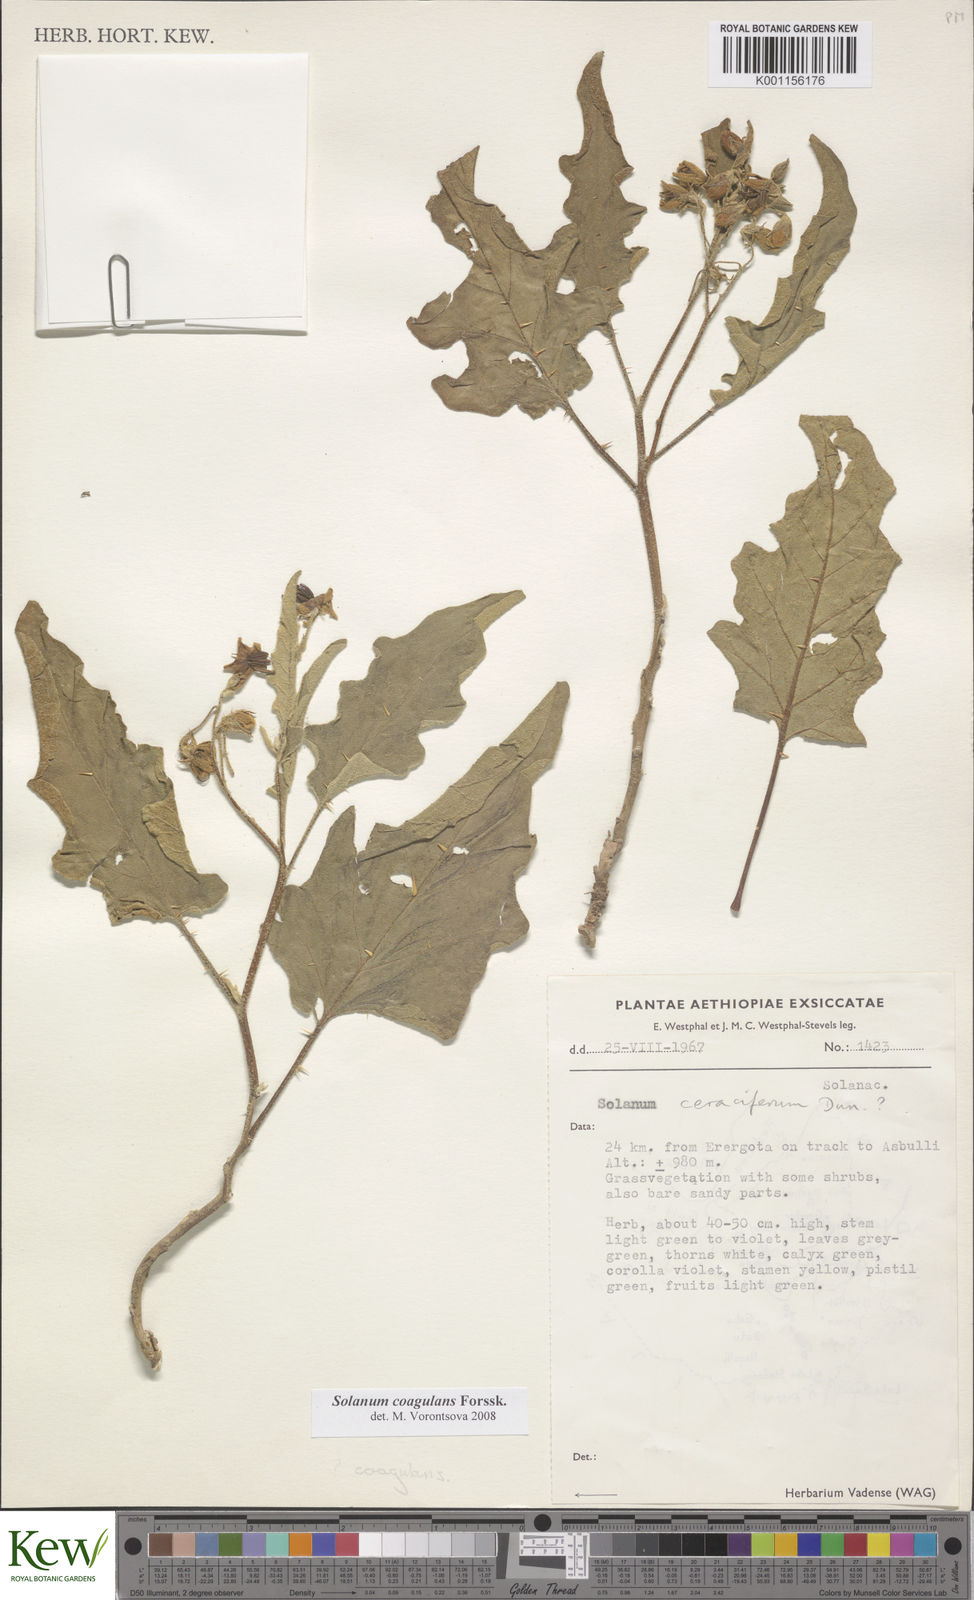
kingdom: Plantae
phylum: Tracheophyta
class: Magnoliopsida
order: Solanales
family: Solanaceae
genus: Solanum
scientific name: Solanum coagulans
